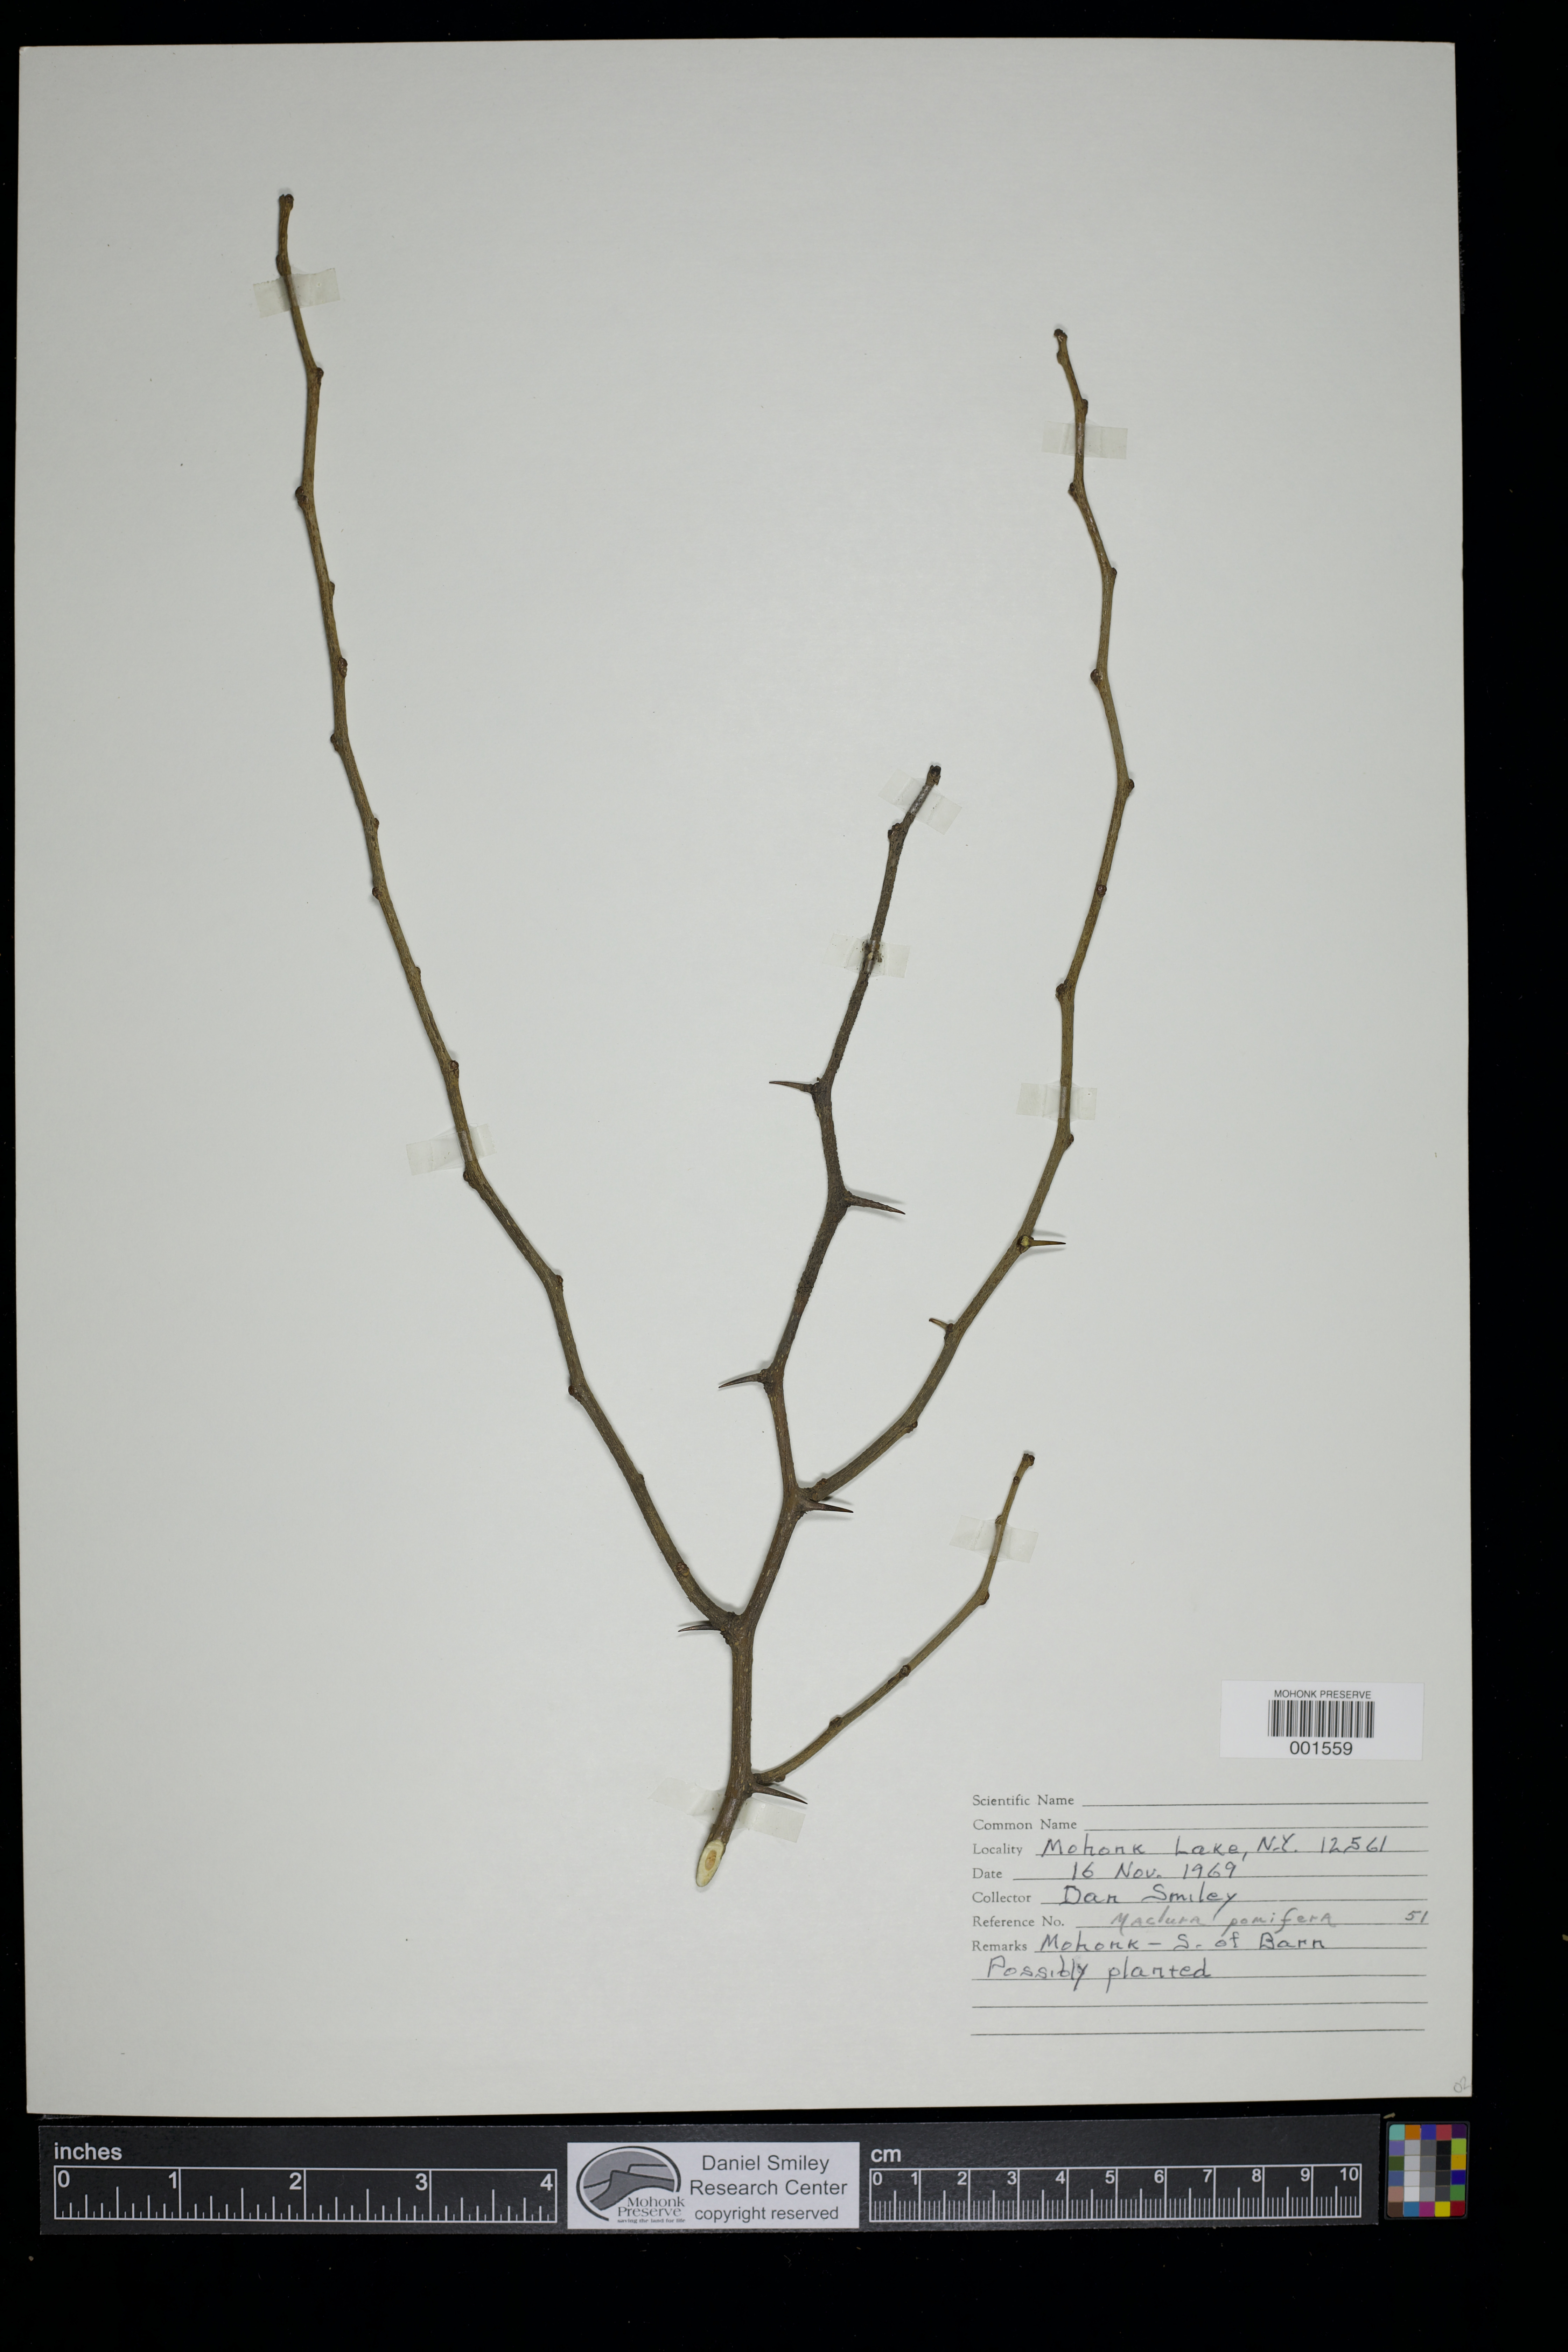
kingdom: Plantae
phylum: Tracheophyta
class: Magnoliopsida
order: Rosales
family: Moraceae
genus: Maclura
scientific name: Maclura pomifera
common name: Osage-orange
